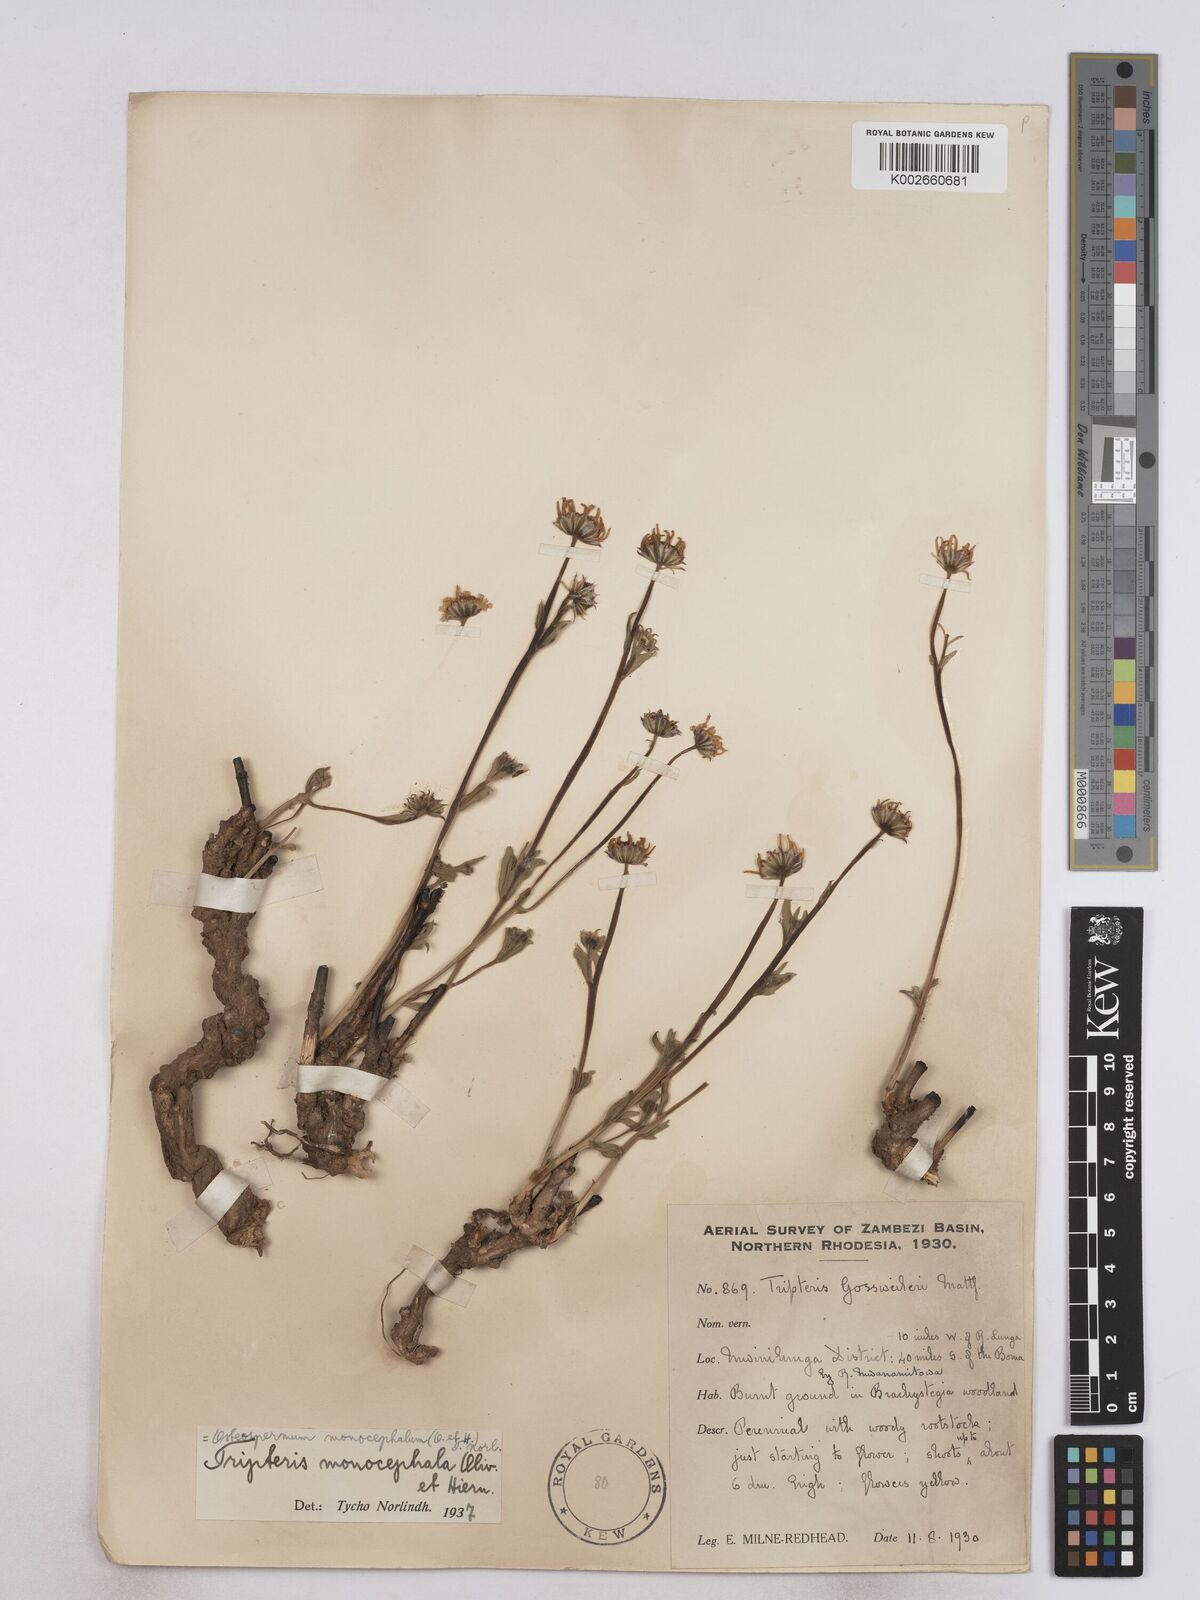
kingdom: Plantae
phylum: Tracheophyta
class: Magnoliopsida
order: Asterales
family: Asteraceae
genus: Osteospermum
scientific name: Osteospermum monocephalum
